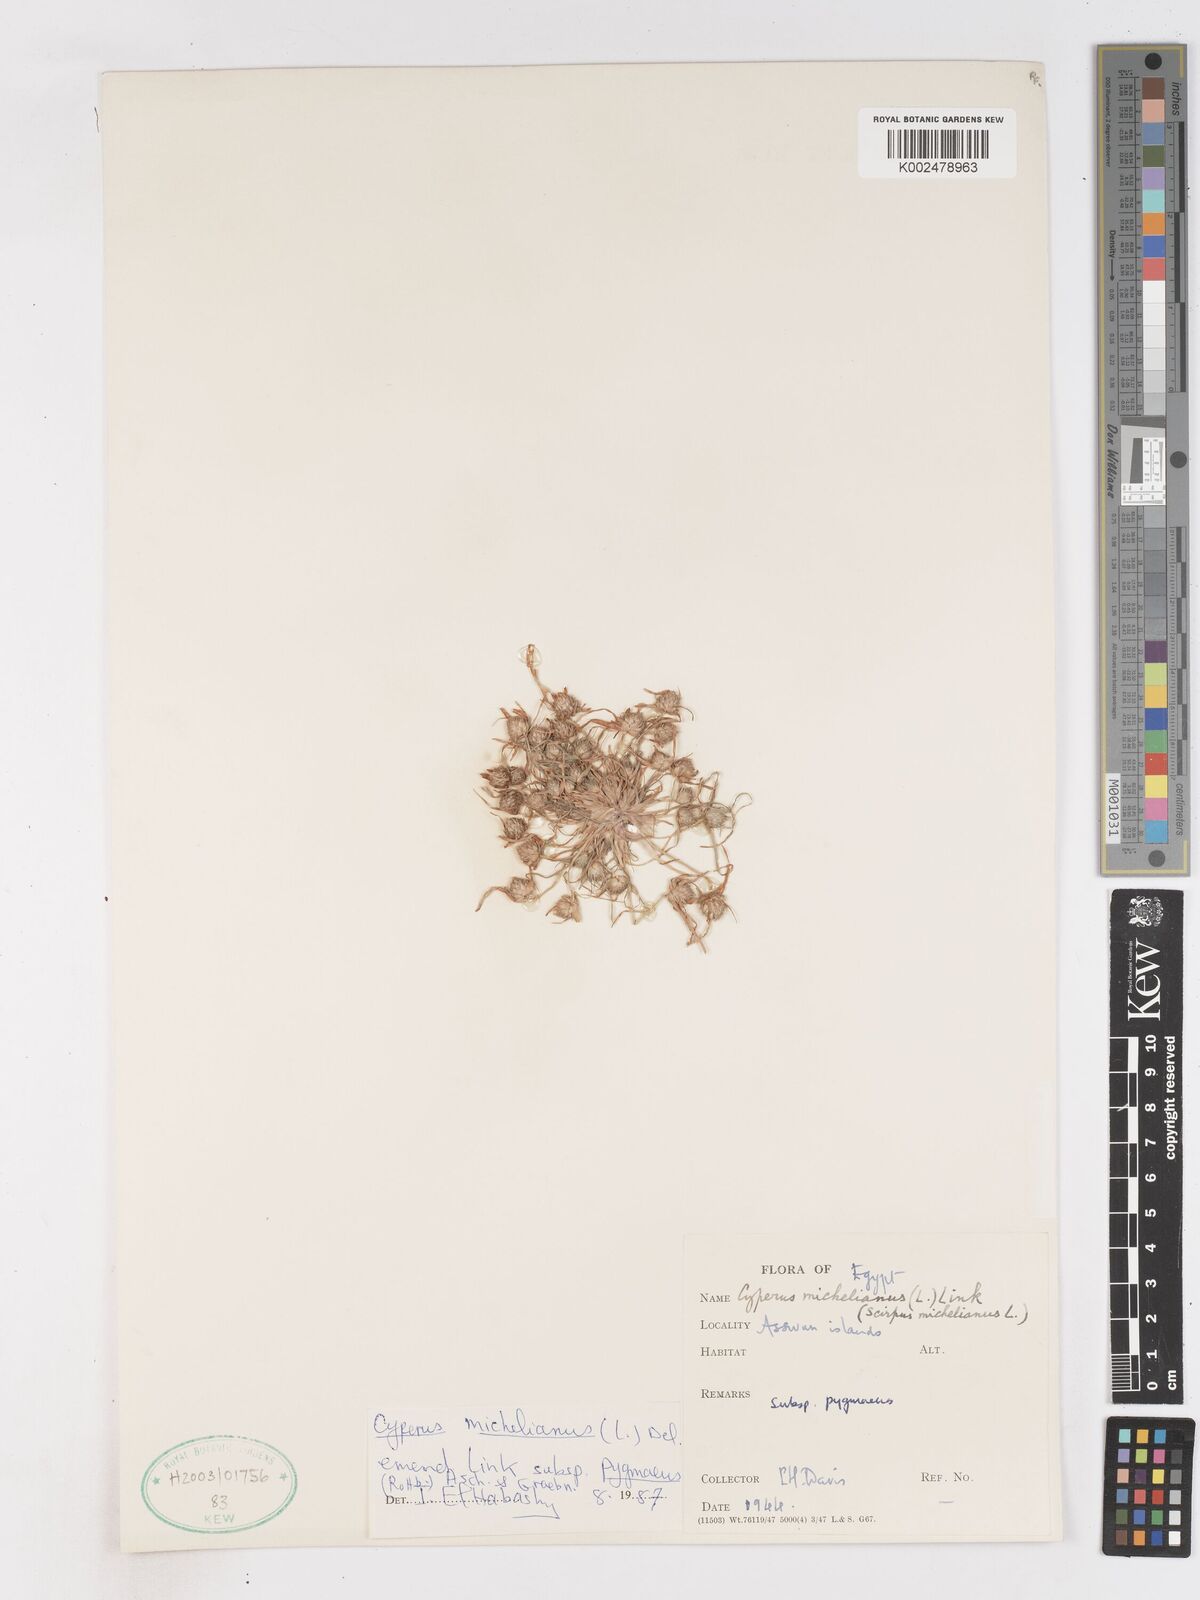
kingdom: Plantae
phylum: Tracheophyta
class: Liliopsida
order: Poales
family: Cyperaceae
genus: Cyperus
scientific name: Cyperus michelianus
